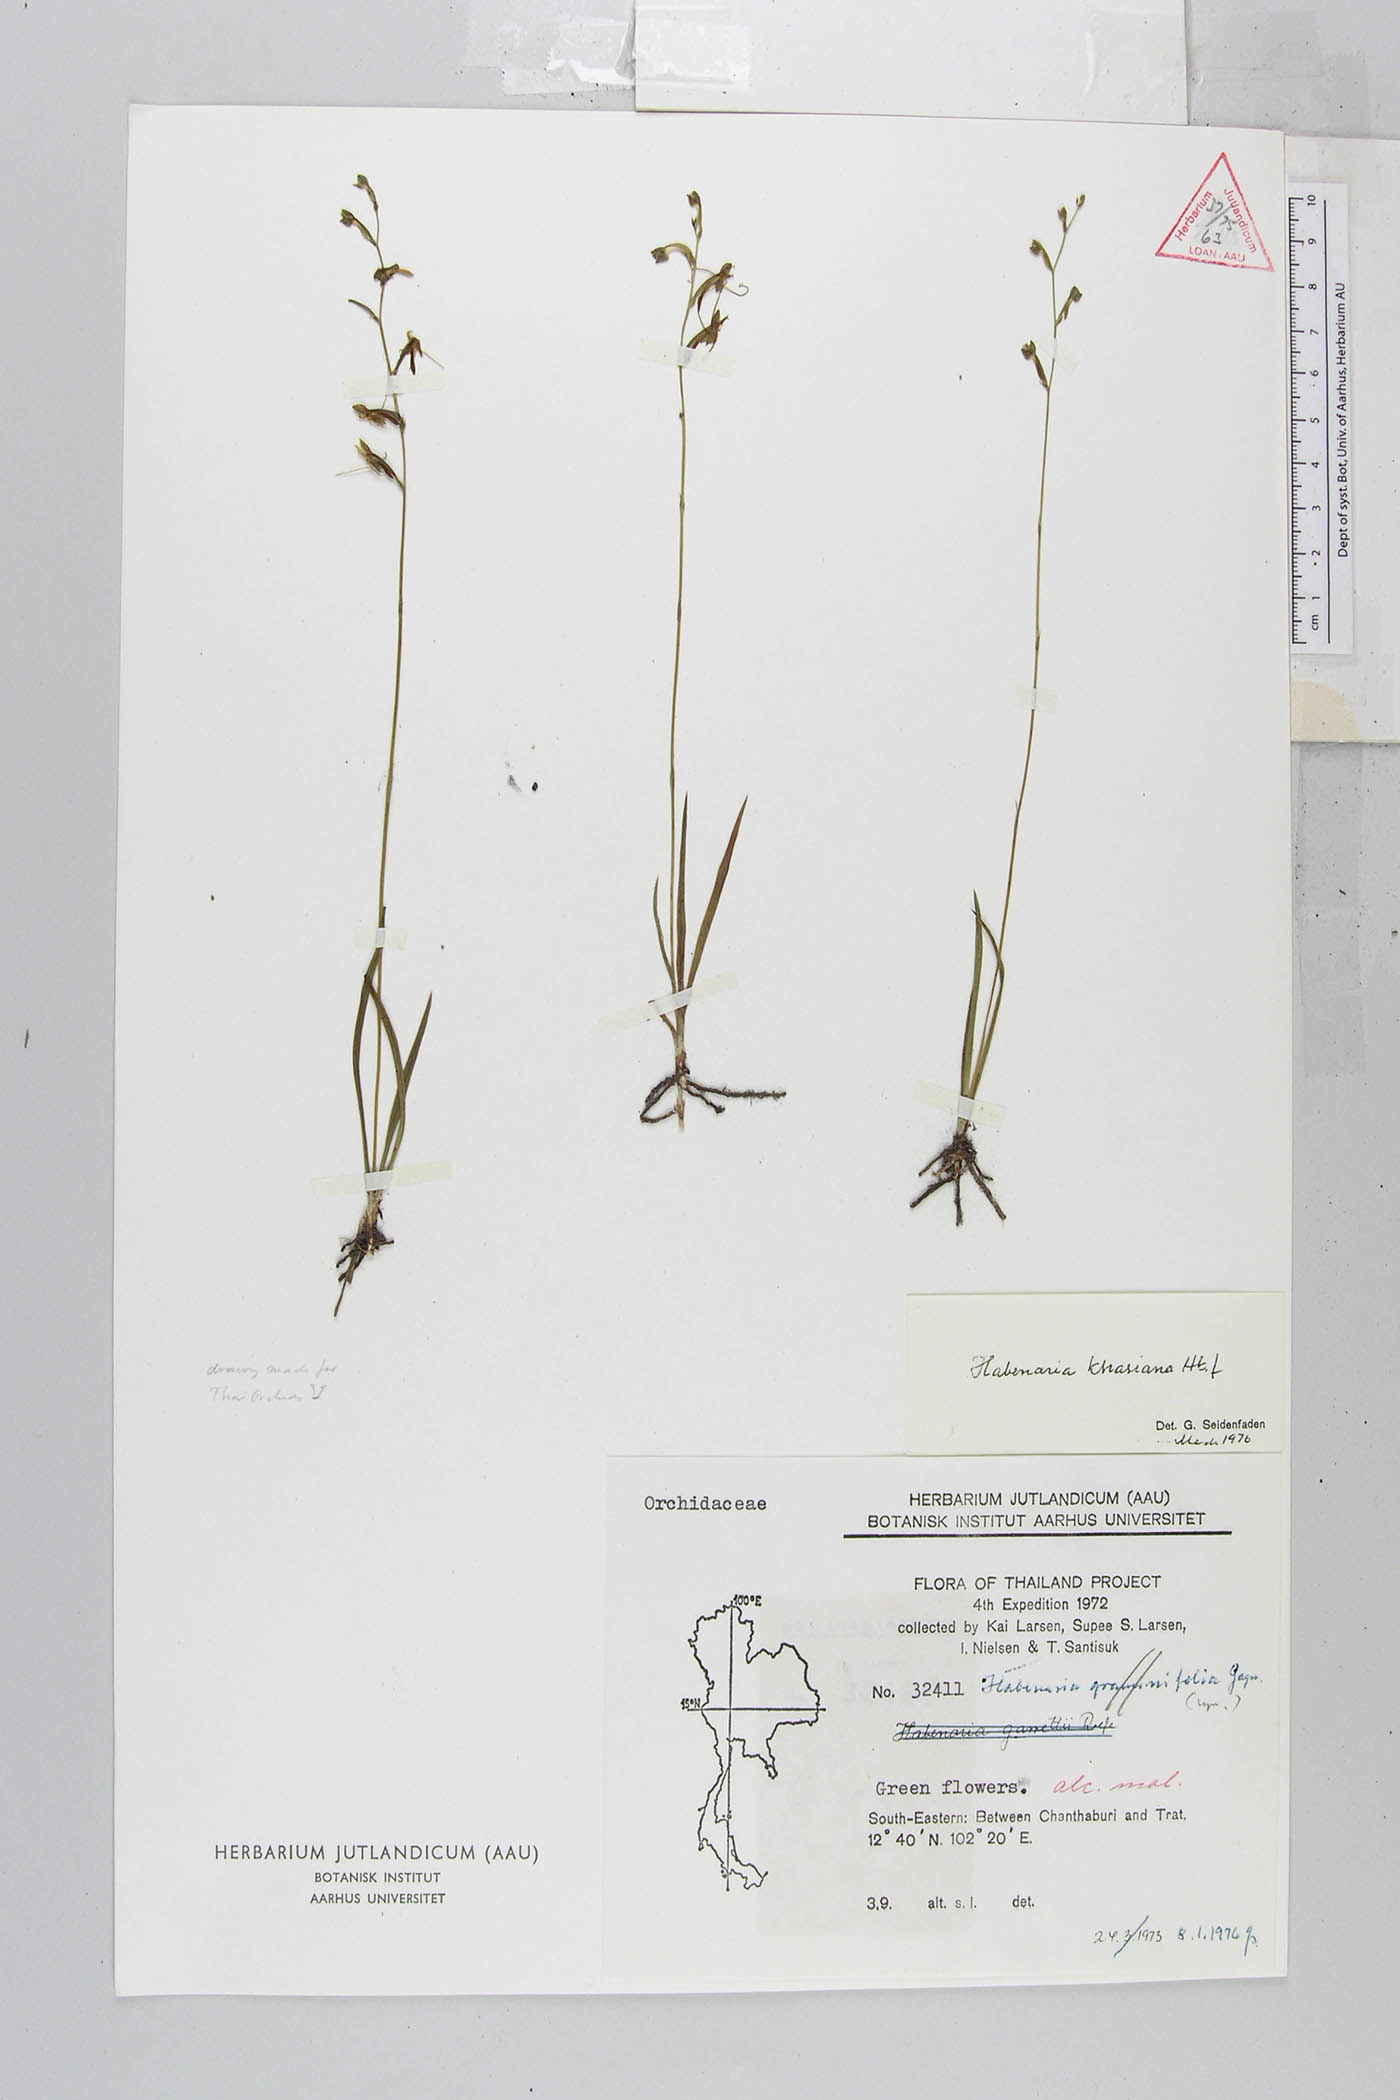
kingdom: Plantae
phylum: Tracheophyta
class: Liliopsida
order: Asparagales
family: Orchidaceae
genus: Habenaria
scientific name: Habenaria khasiana
